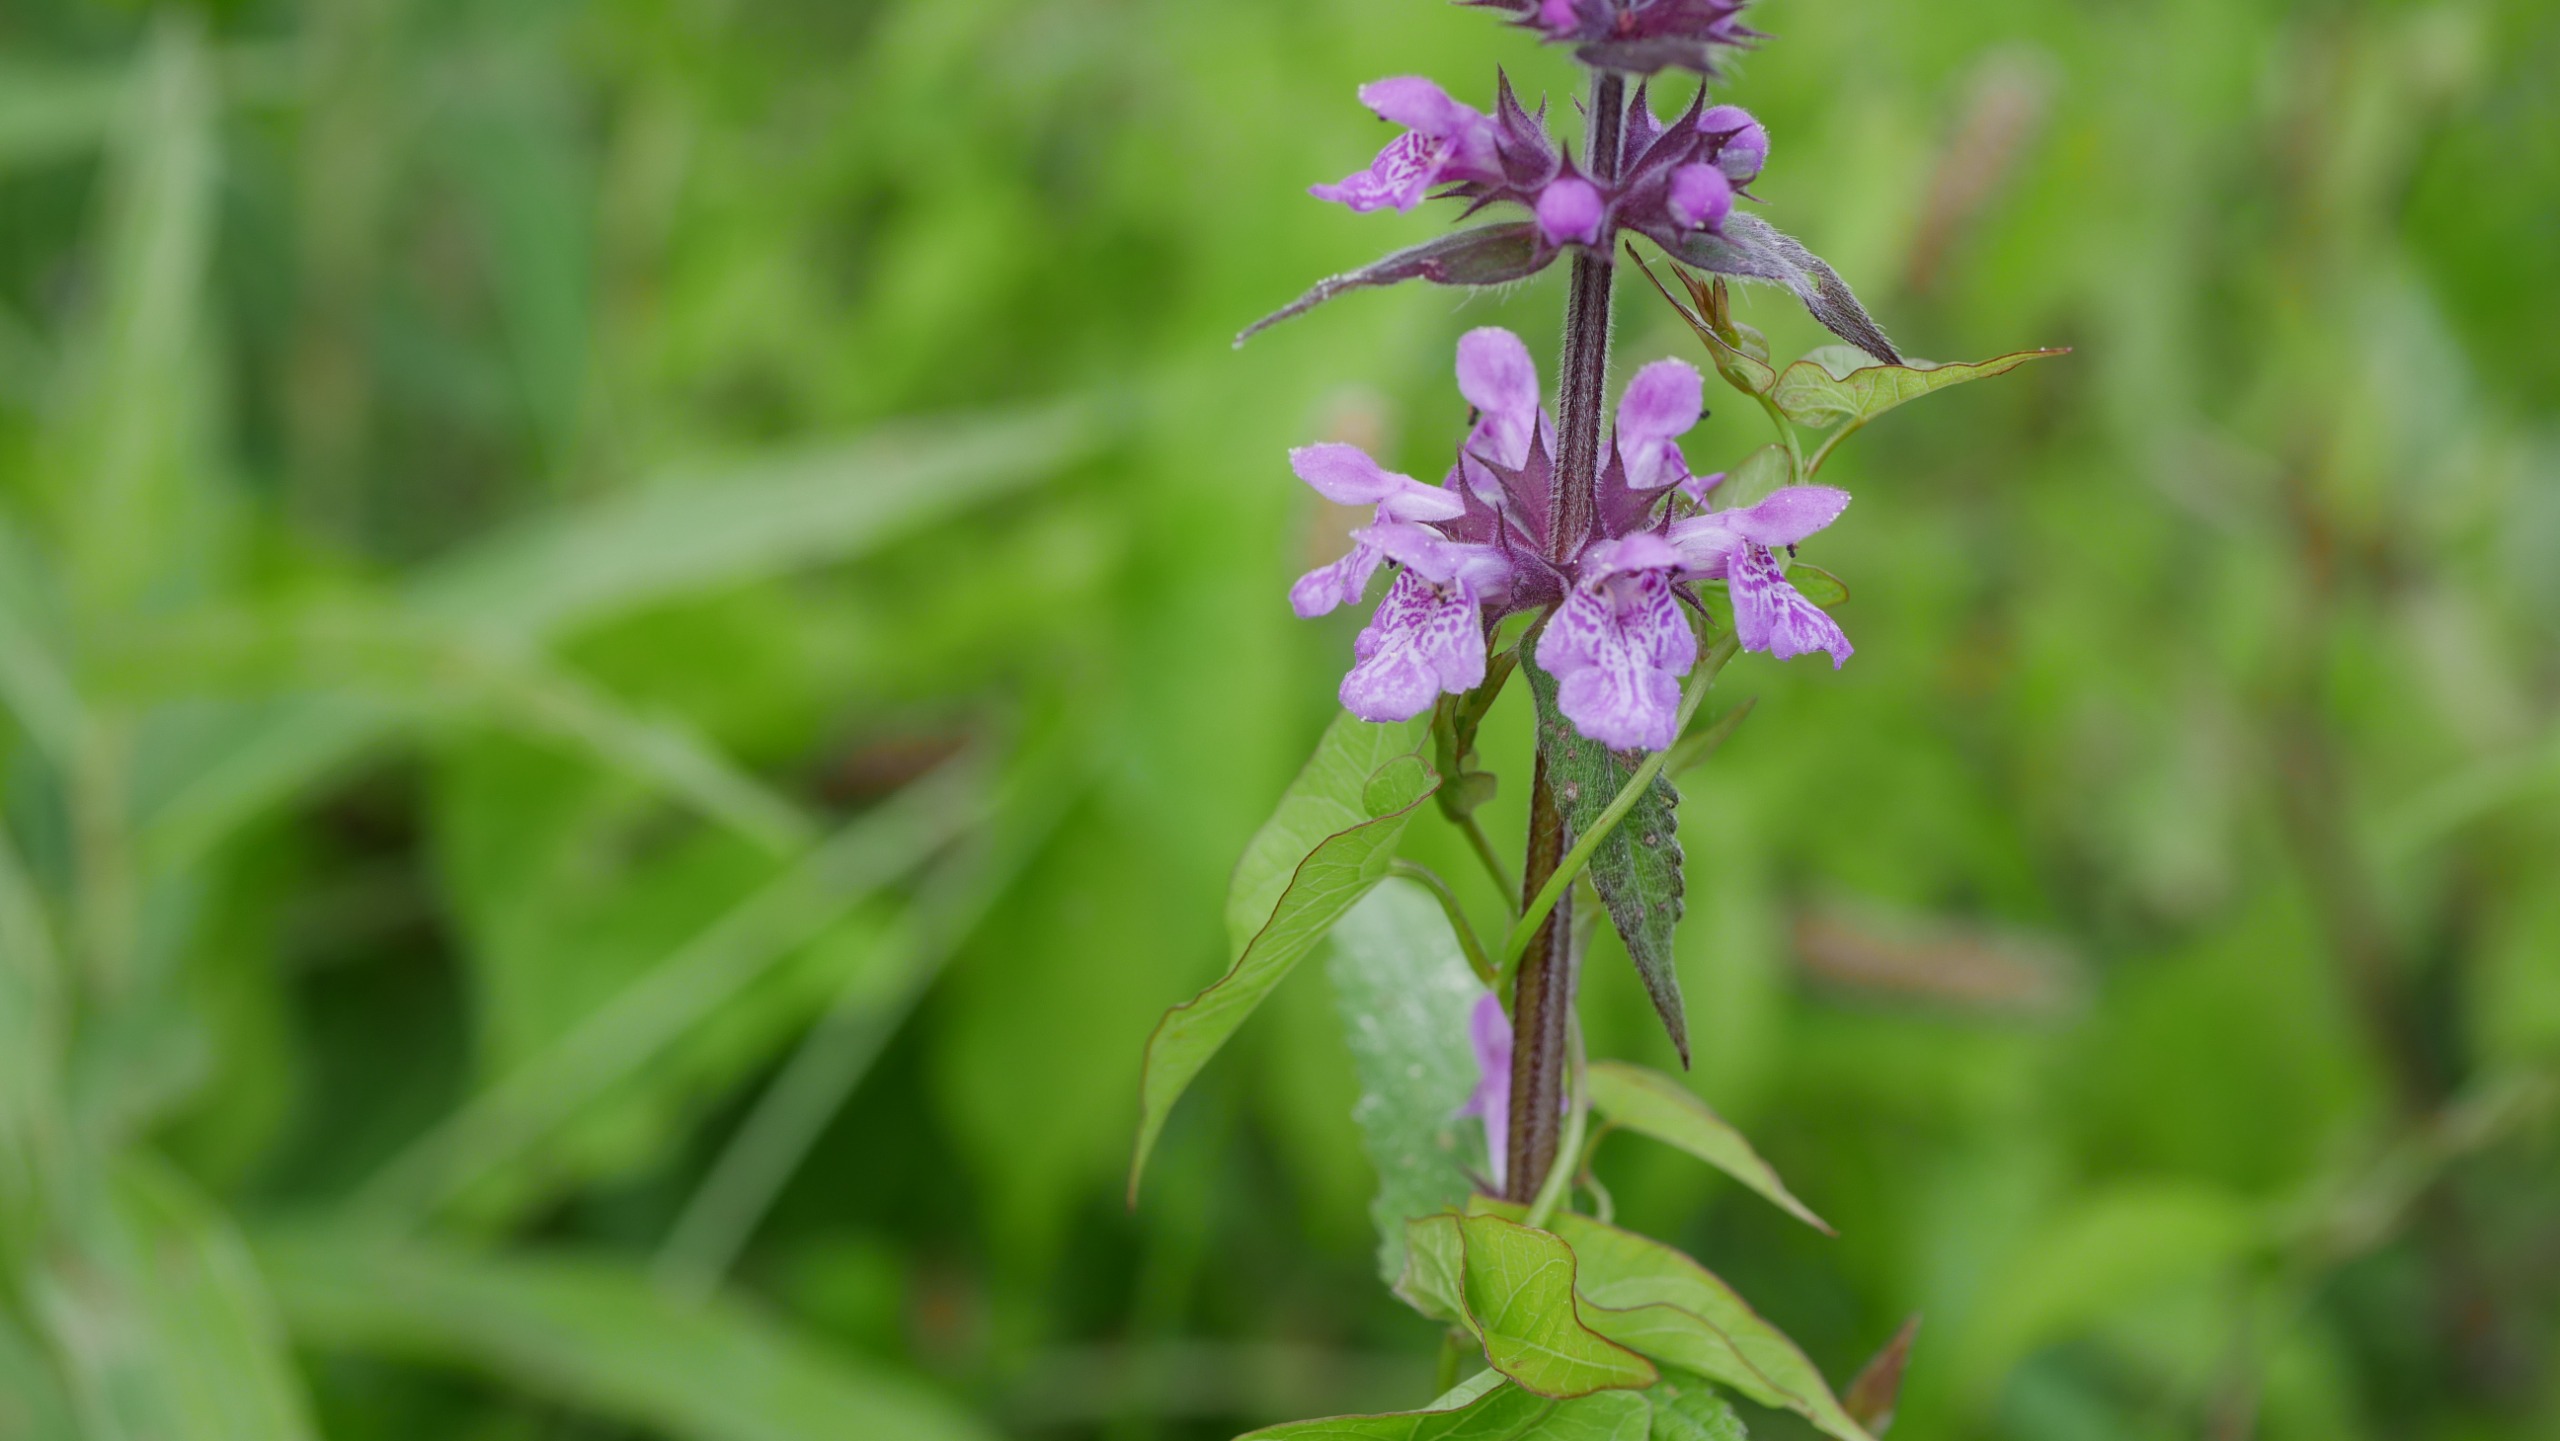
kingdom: Plantae
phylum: Tracheophyta
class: Magnoliopsida
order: Lamiales
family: Lamiaceae
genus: Stachys
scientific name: Stachys palustris
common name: Kær-galtetand
